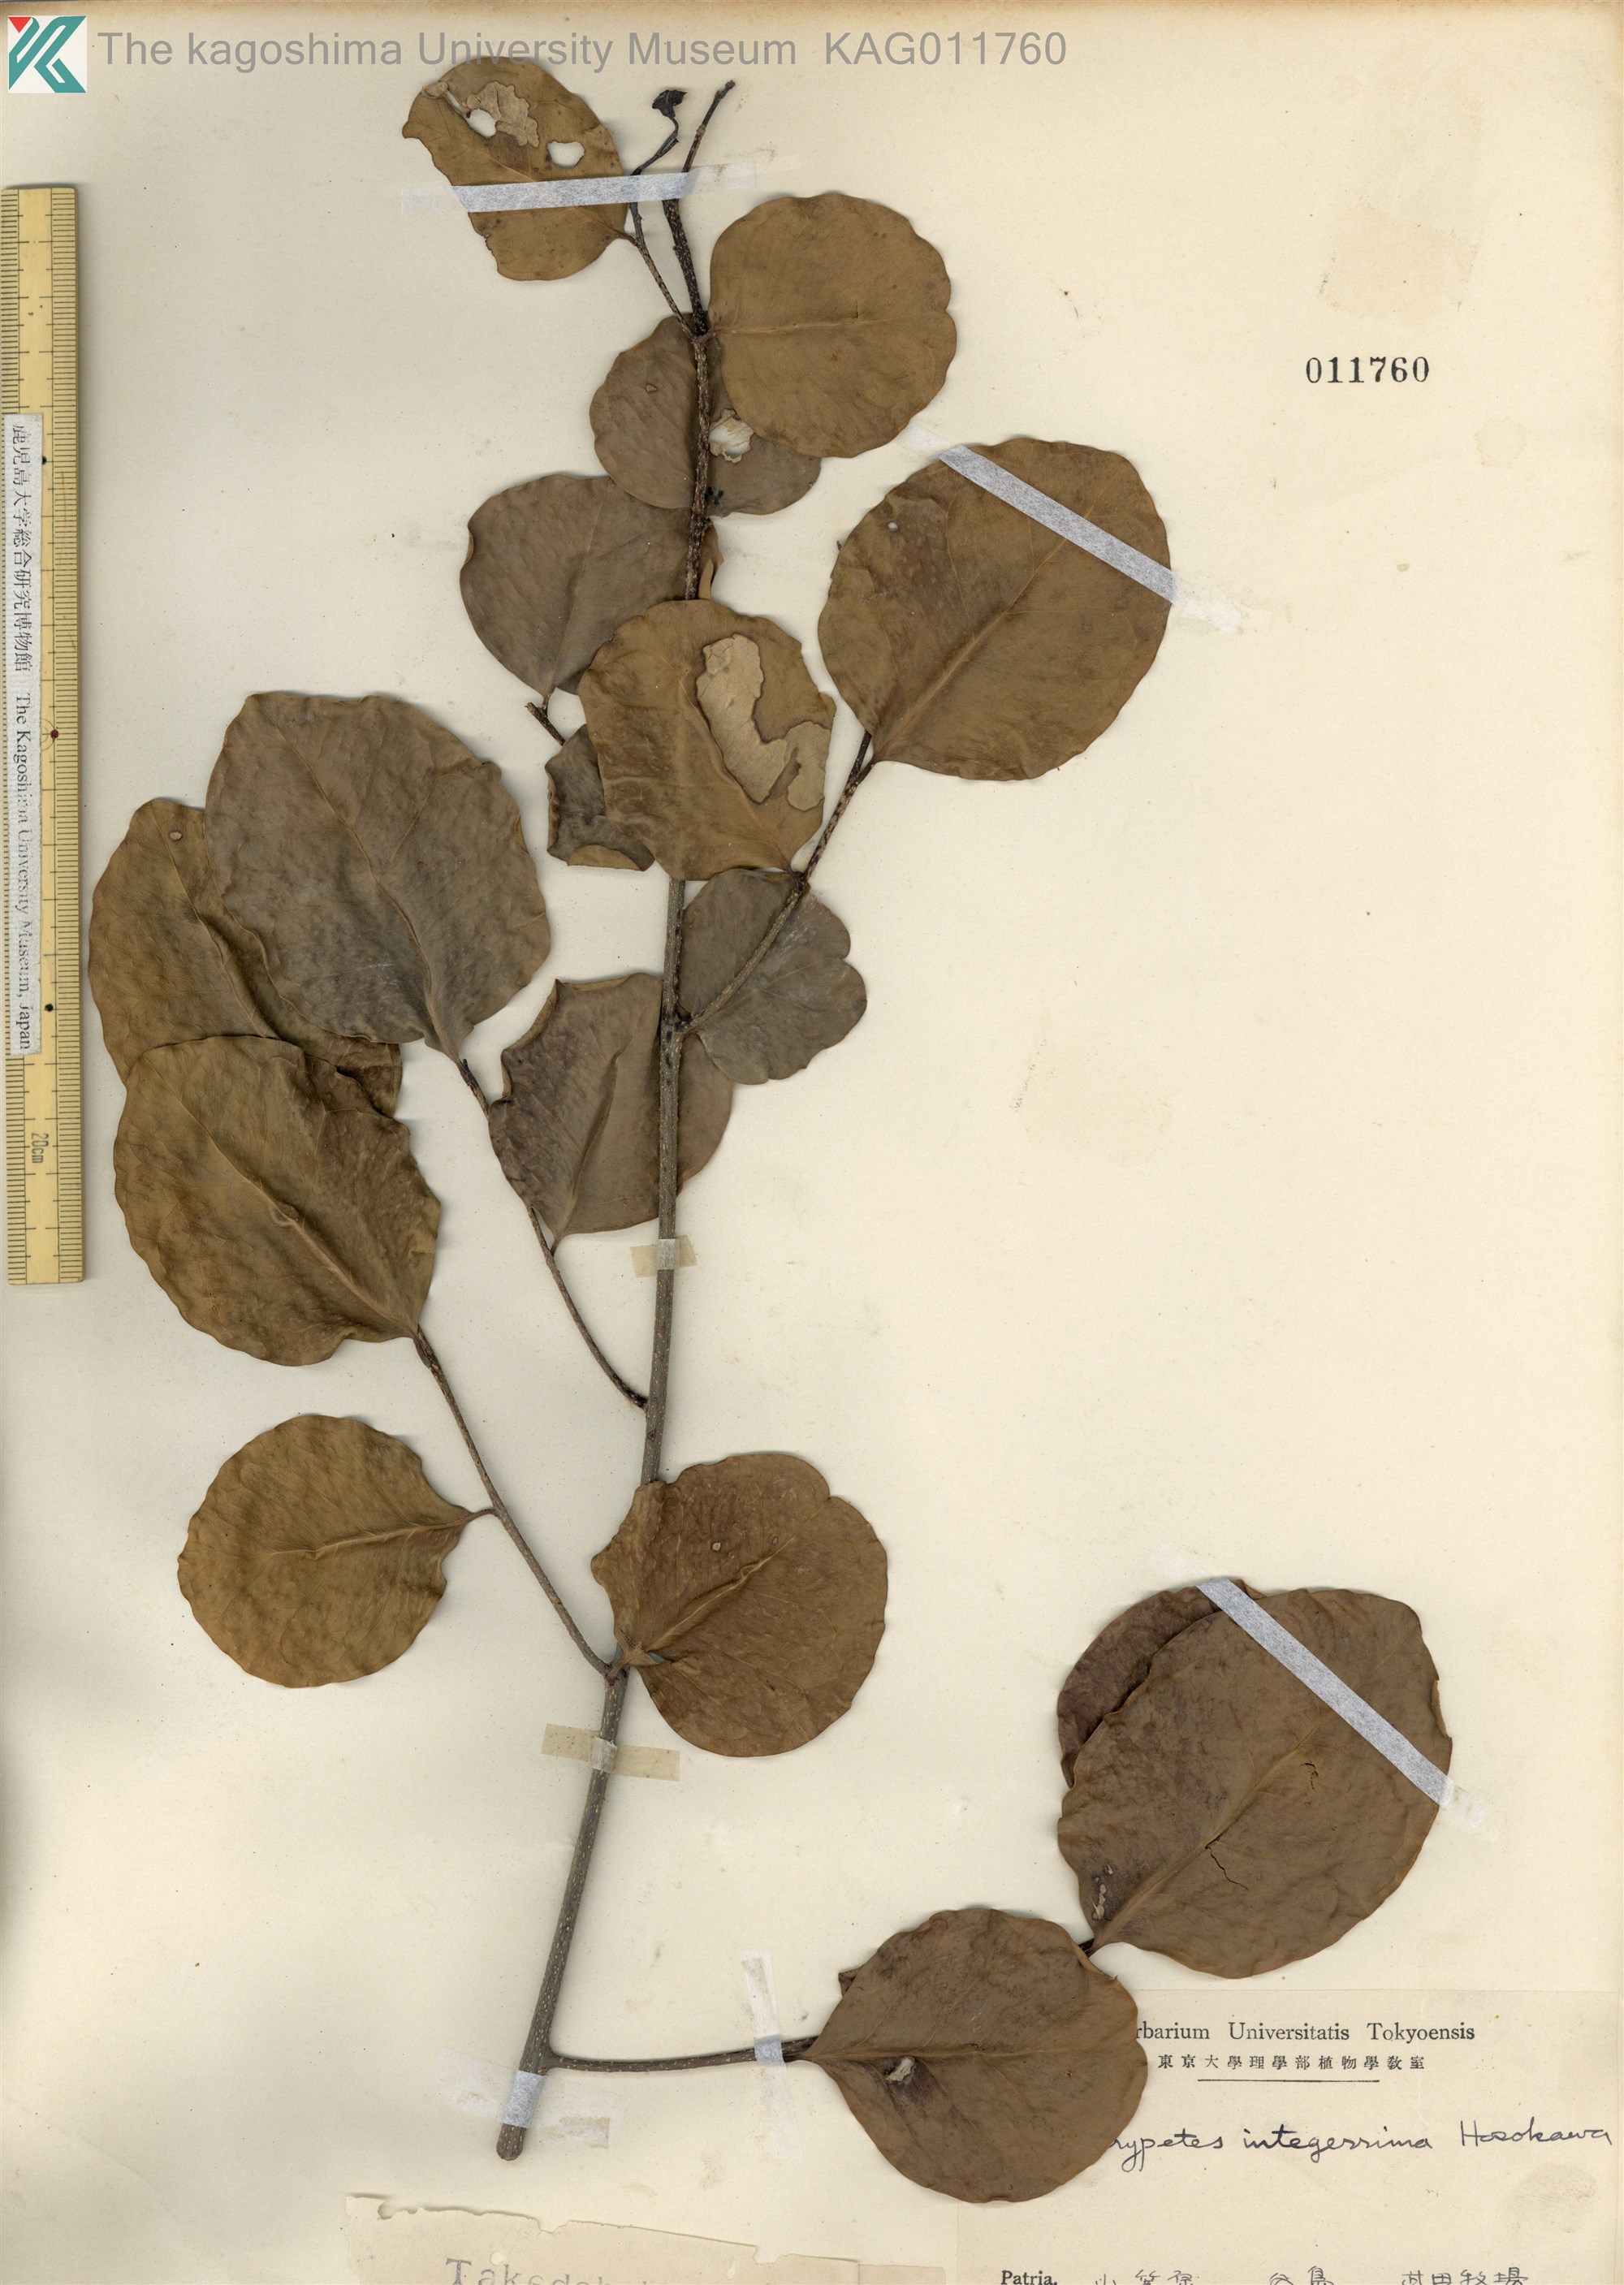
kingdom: Plantae
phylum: Tracheophyta
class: Magnoliopsida
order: Malpighiales
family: Putranjivaceae
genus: Drypetes
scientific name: Drypetes integerrima
